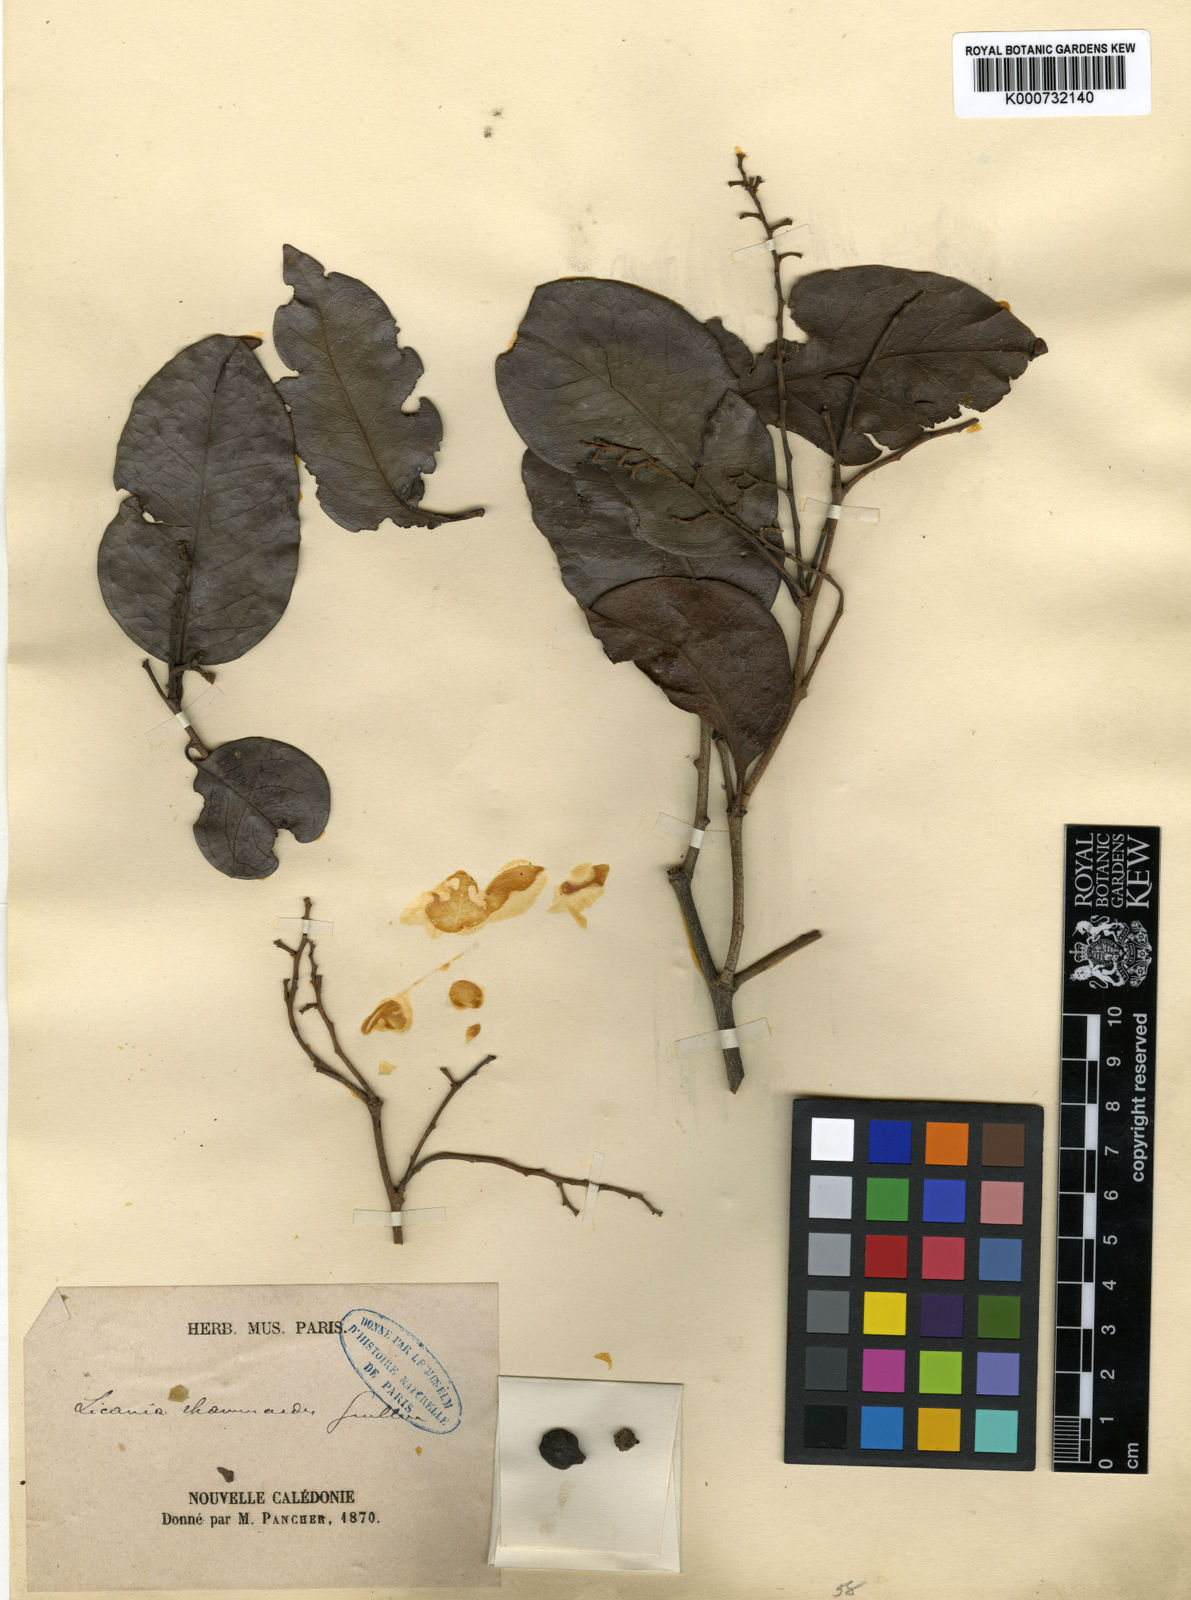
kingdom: Plantae
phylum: Tracheophyta
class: Magnoliopsida
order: Malpighiales
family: Chrysobalanaceae
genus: Hunga
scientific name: Hunga rhamnoides
